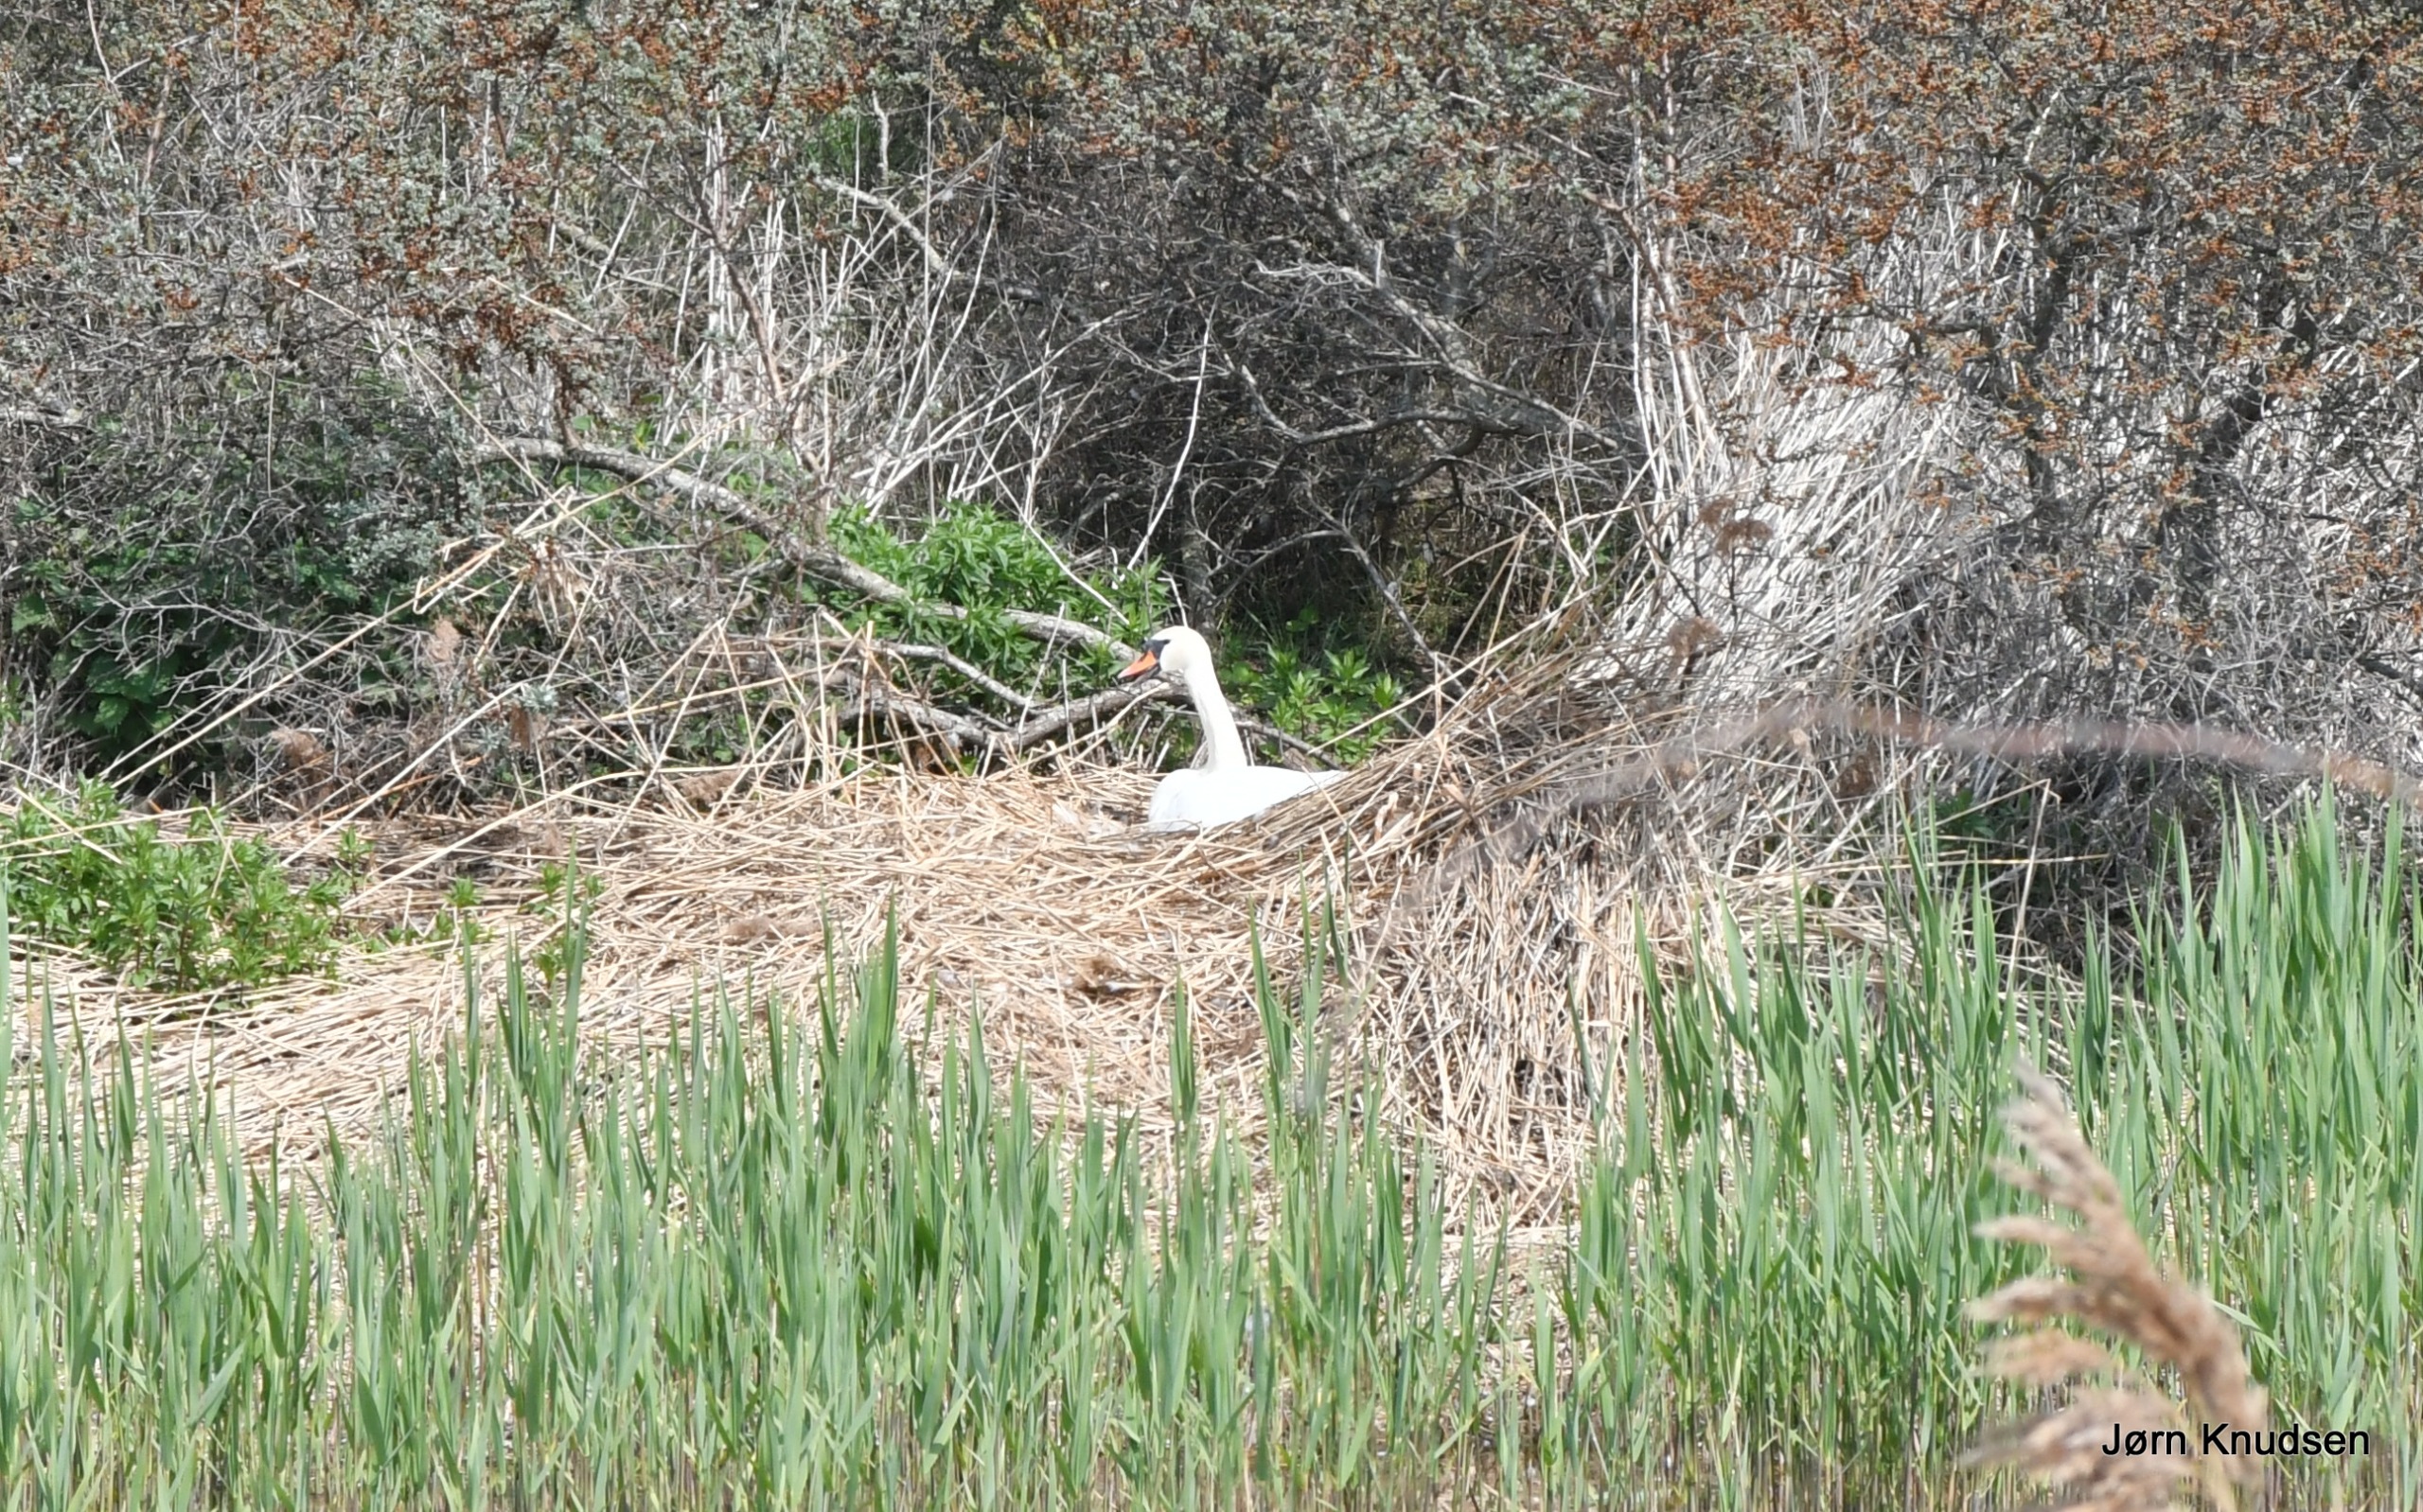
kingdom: Animalia
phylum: Chordata
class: Aves
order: Anseriformes
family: Anatidae
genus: Cygnus
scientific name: Cygnus olor
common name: Knopsvane
